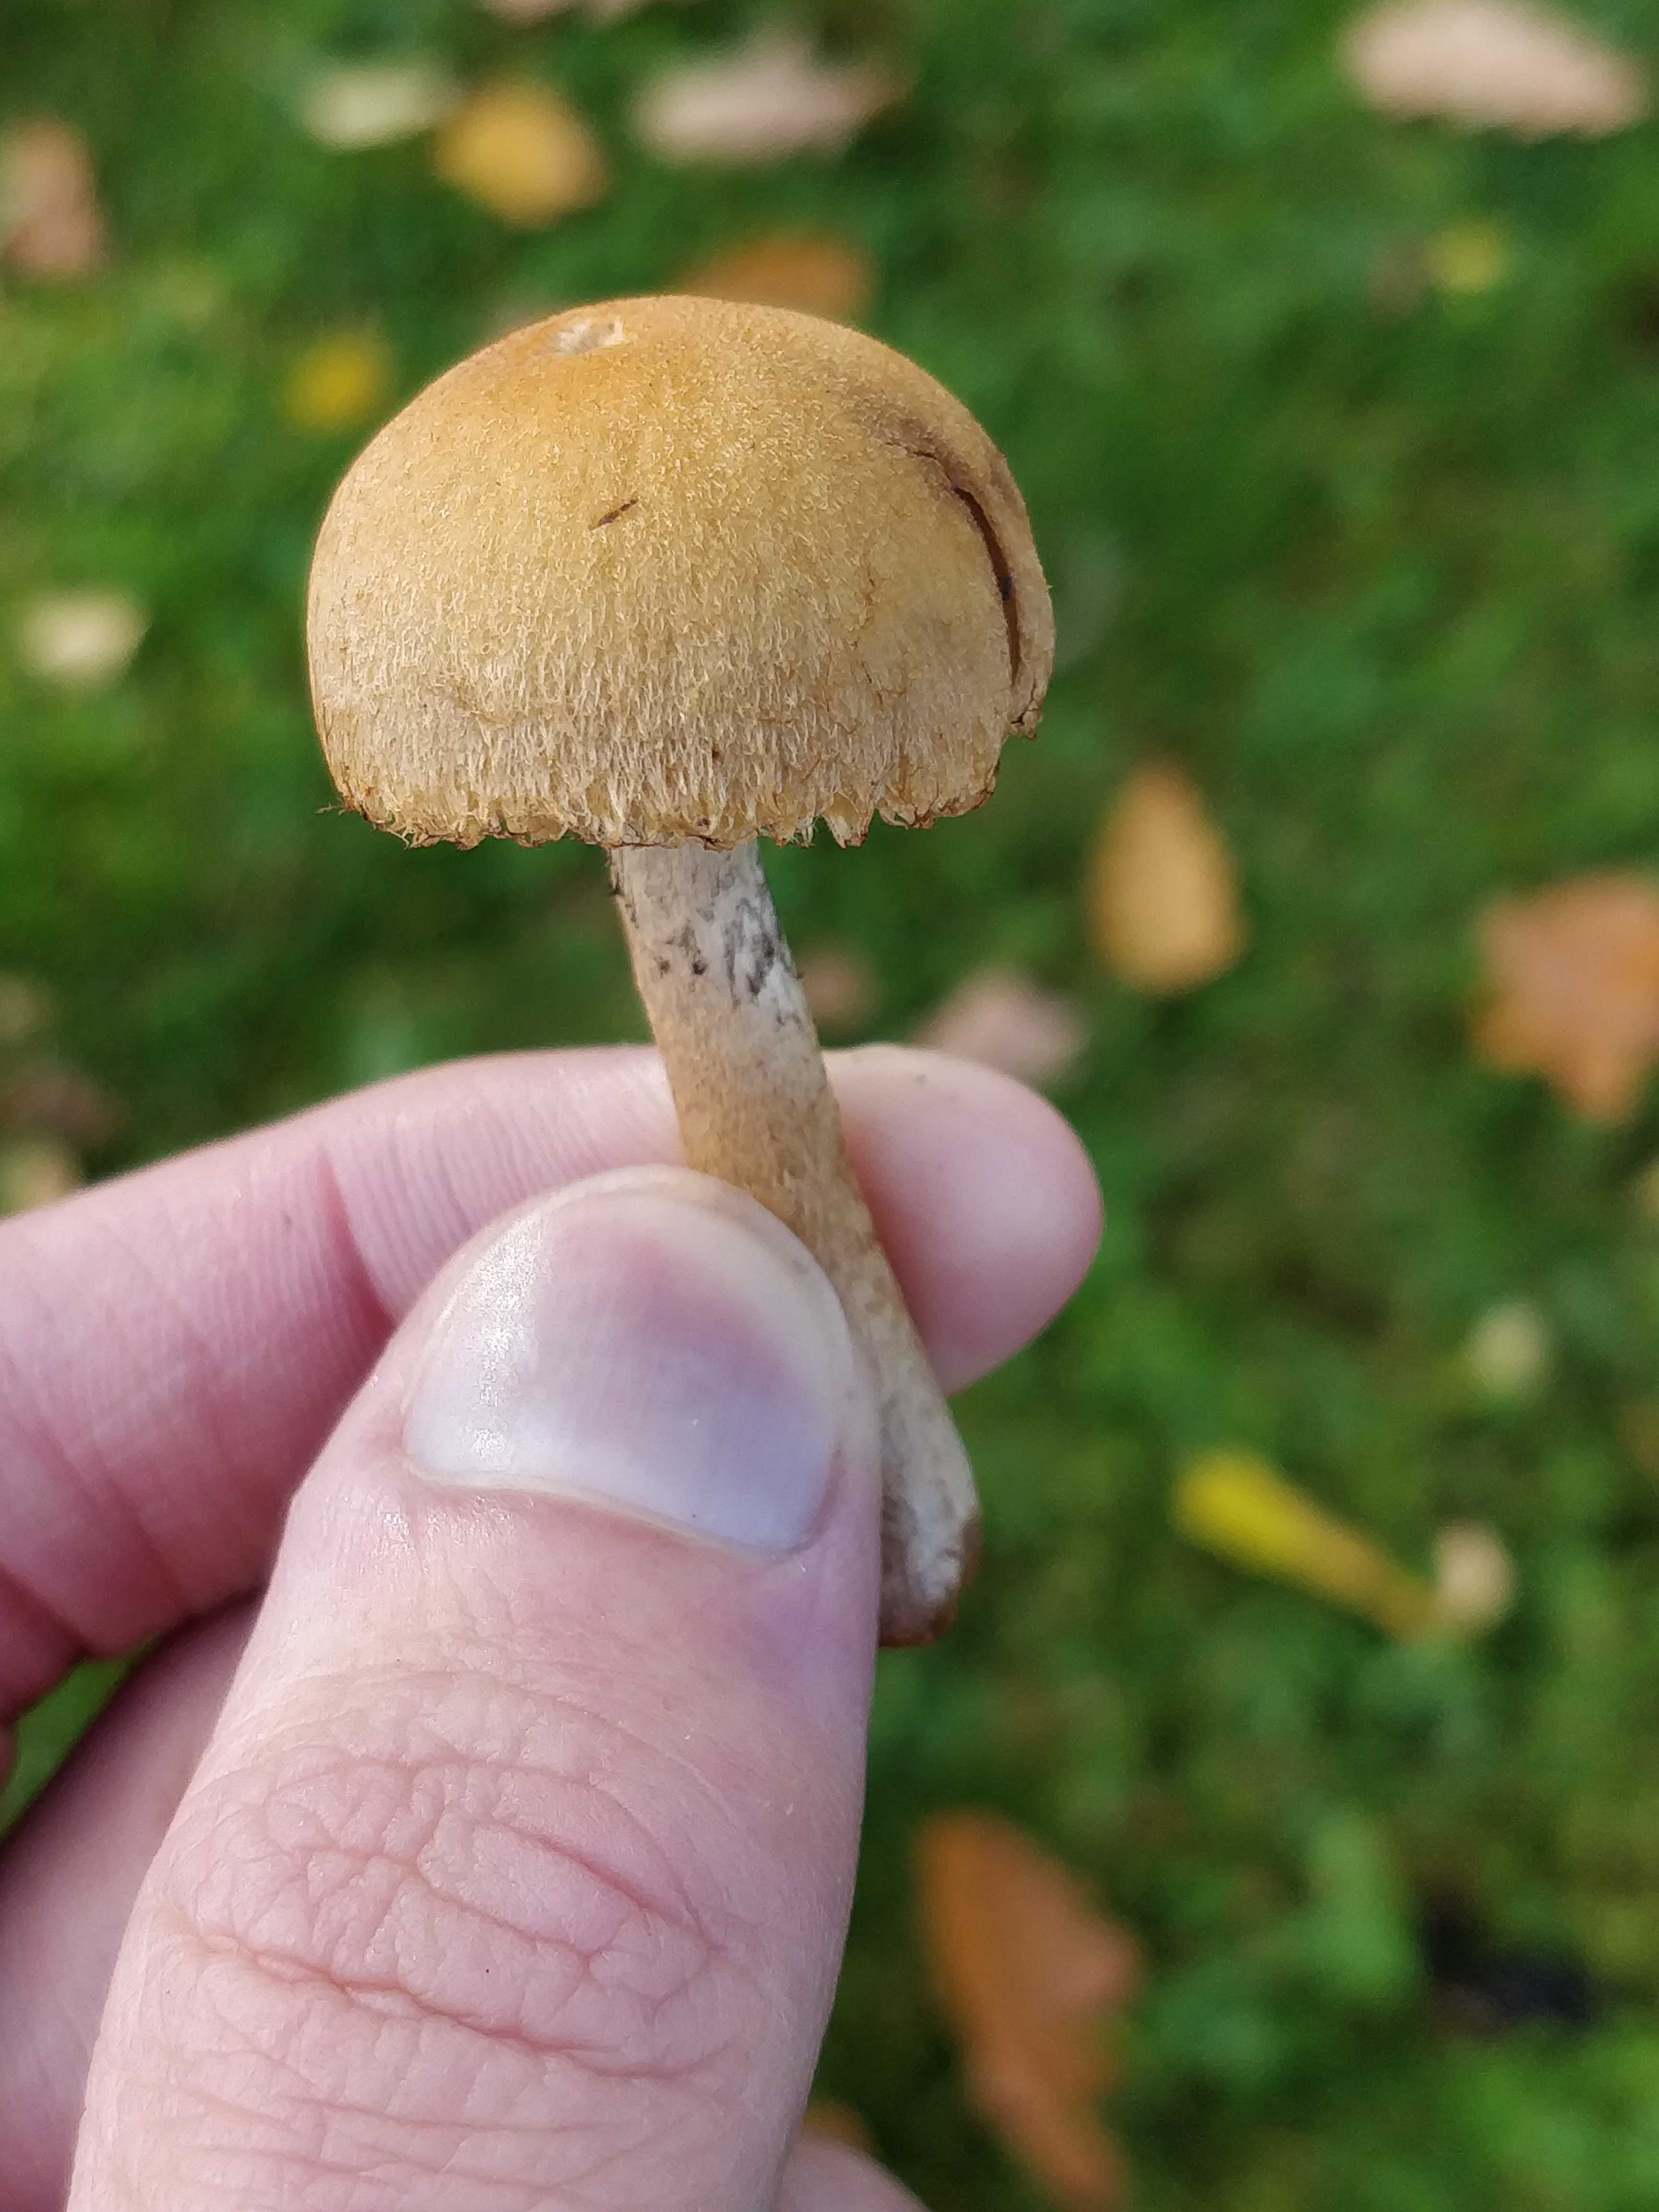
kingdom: Fungi
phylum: Basidiomycota
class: Agaricomycetes
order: Agaricales
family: Psathyrellaceae
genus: Lacrymaria
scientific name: Lacrymaria lacrymabunda
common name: grædende mørkhat
